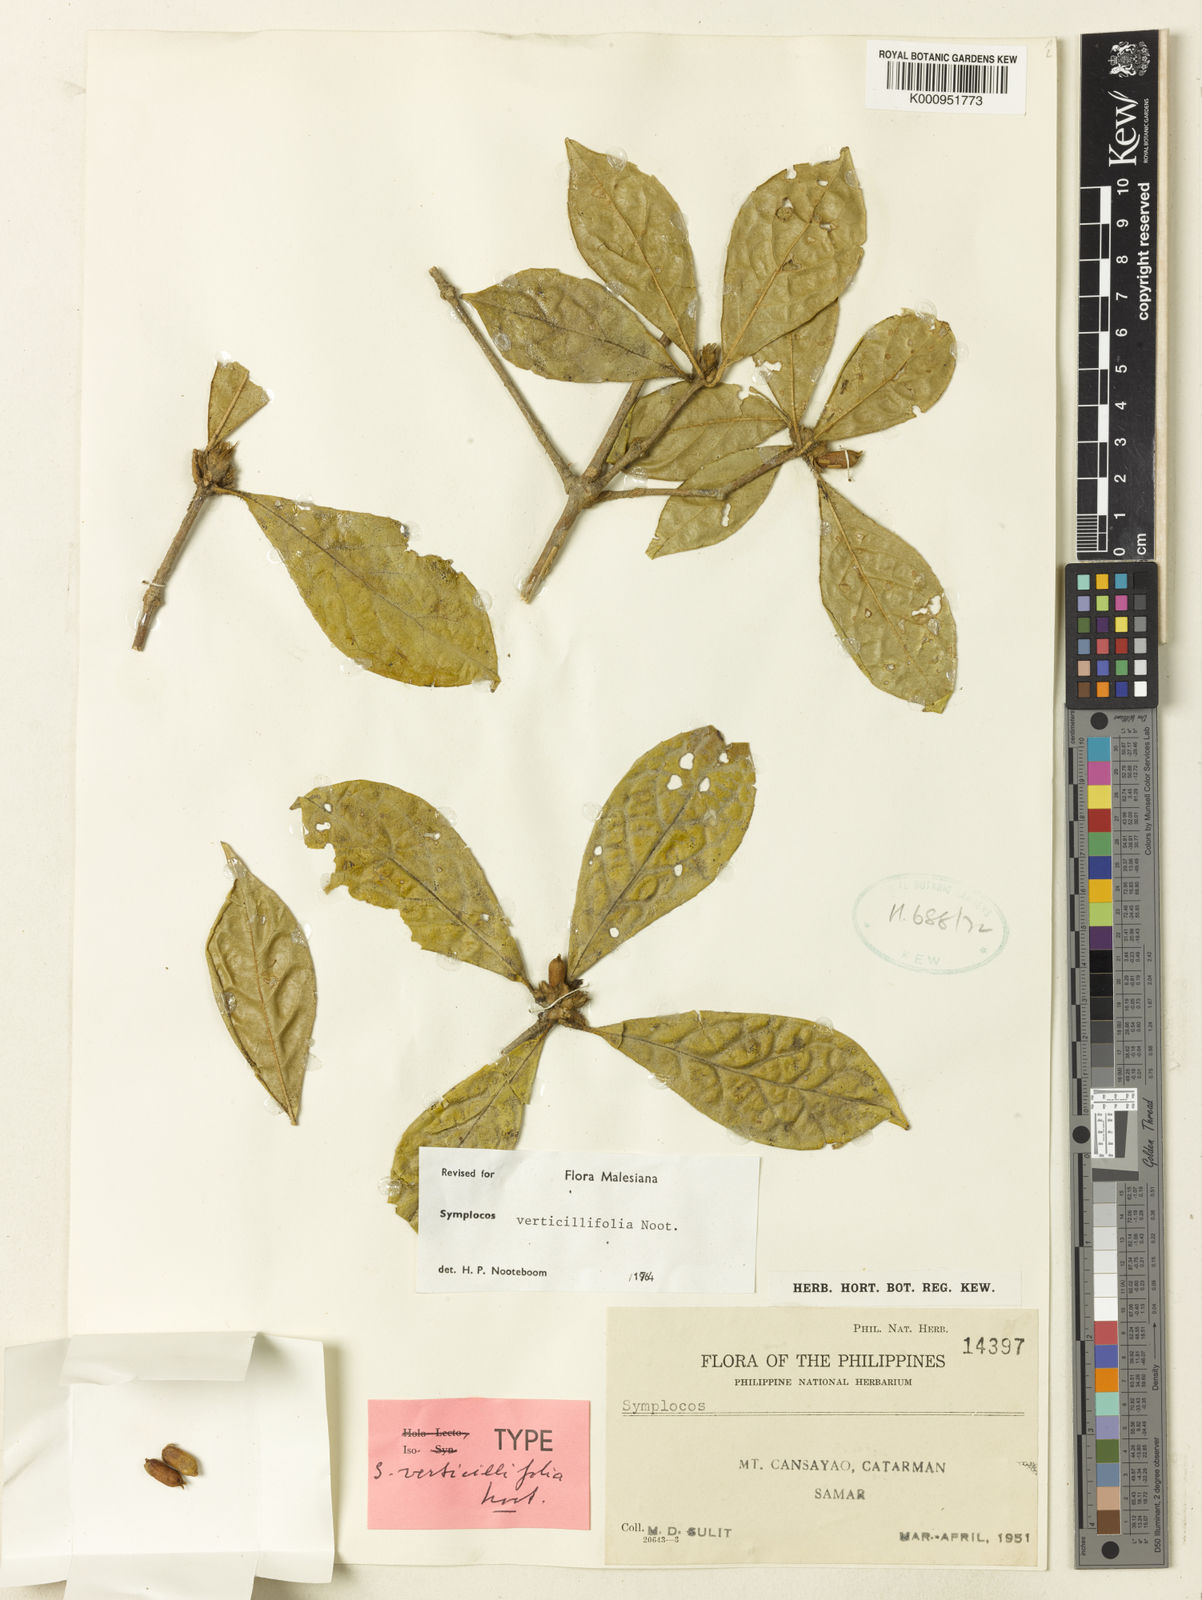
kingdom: Plantae
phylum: Tracheophyta
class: Magnoliopsida
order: Ericales
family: Symplocaceae
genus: Symplocos
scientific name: Symplocos verticillifolia
